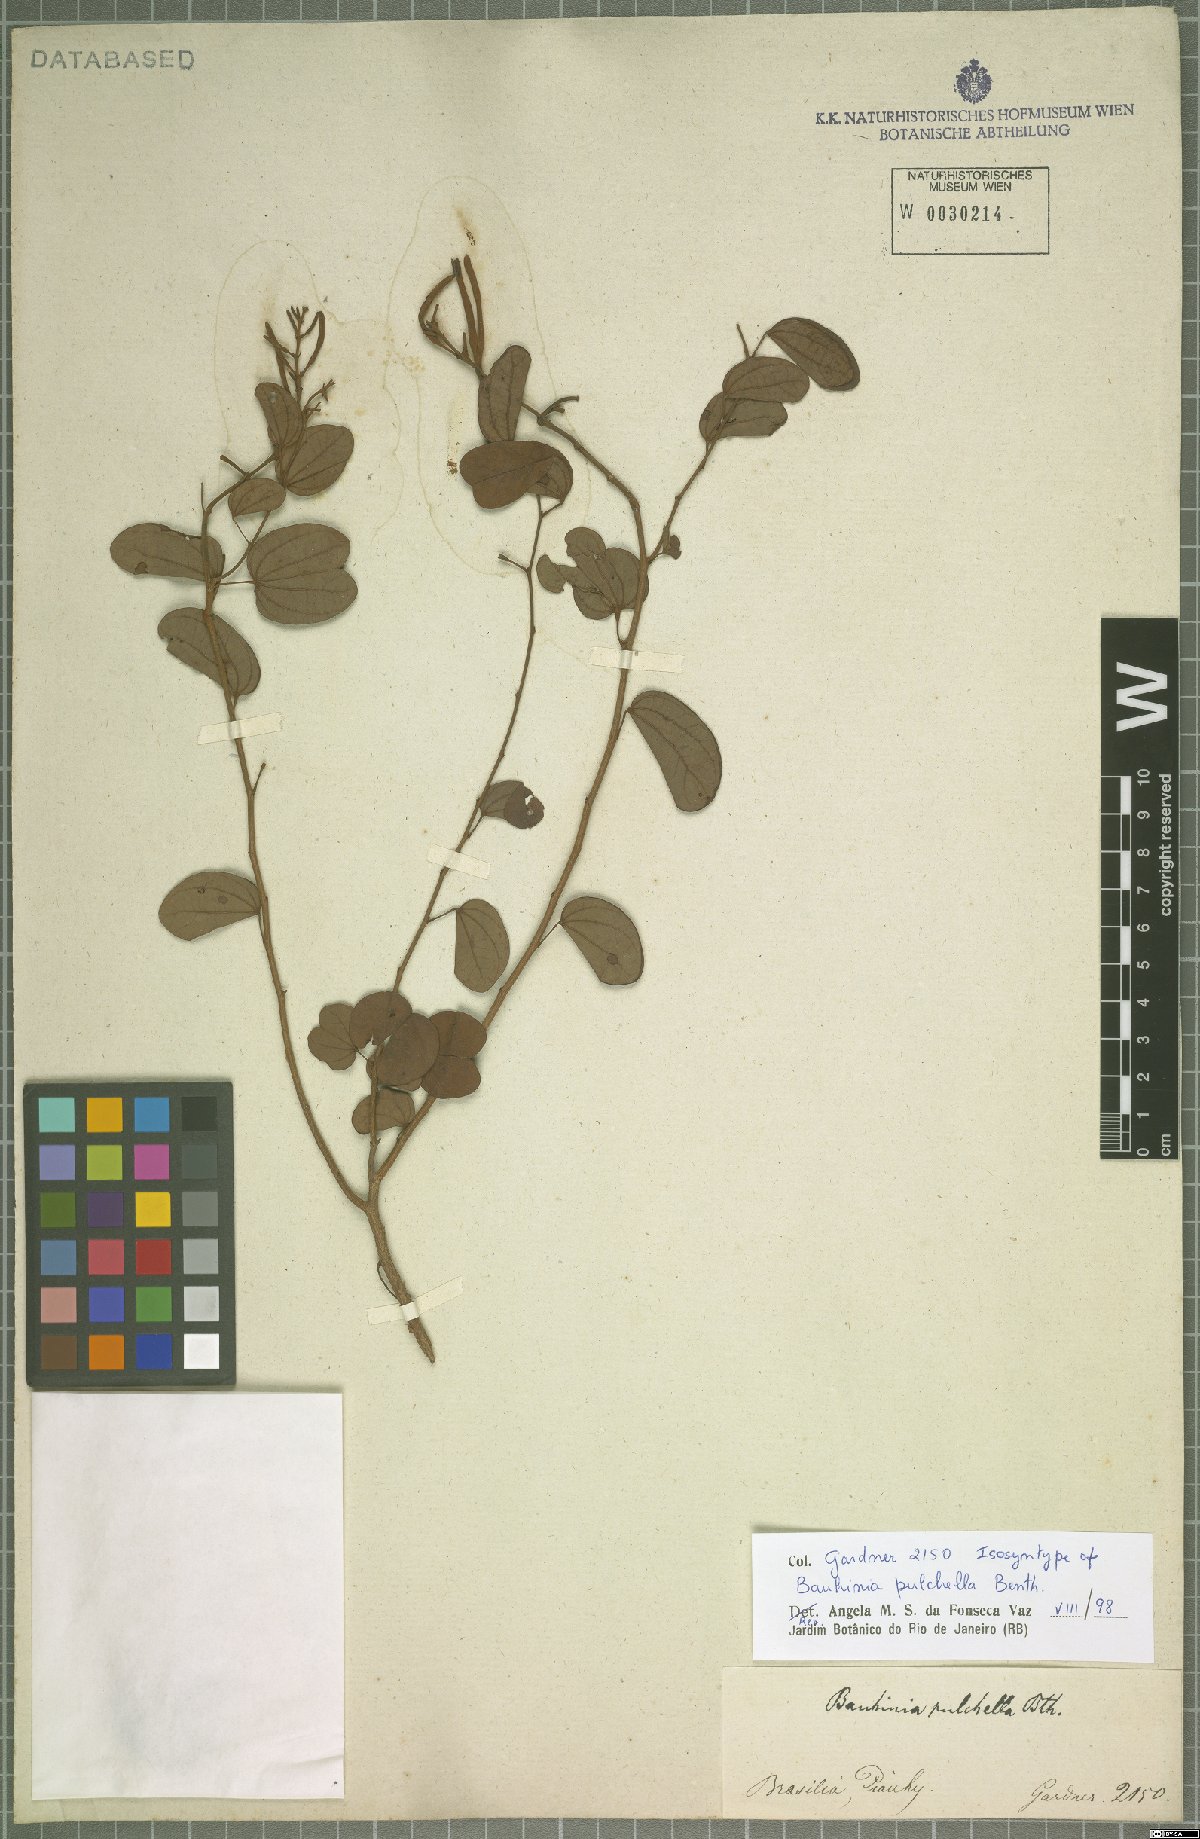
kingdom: Plantae
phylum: Tracheophyta
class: Magnoliopsida
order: Fabales
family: Fabaceae
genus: Bauhinia
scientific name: Bauhinia pulchella
